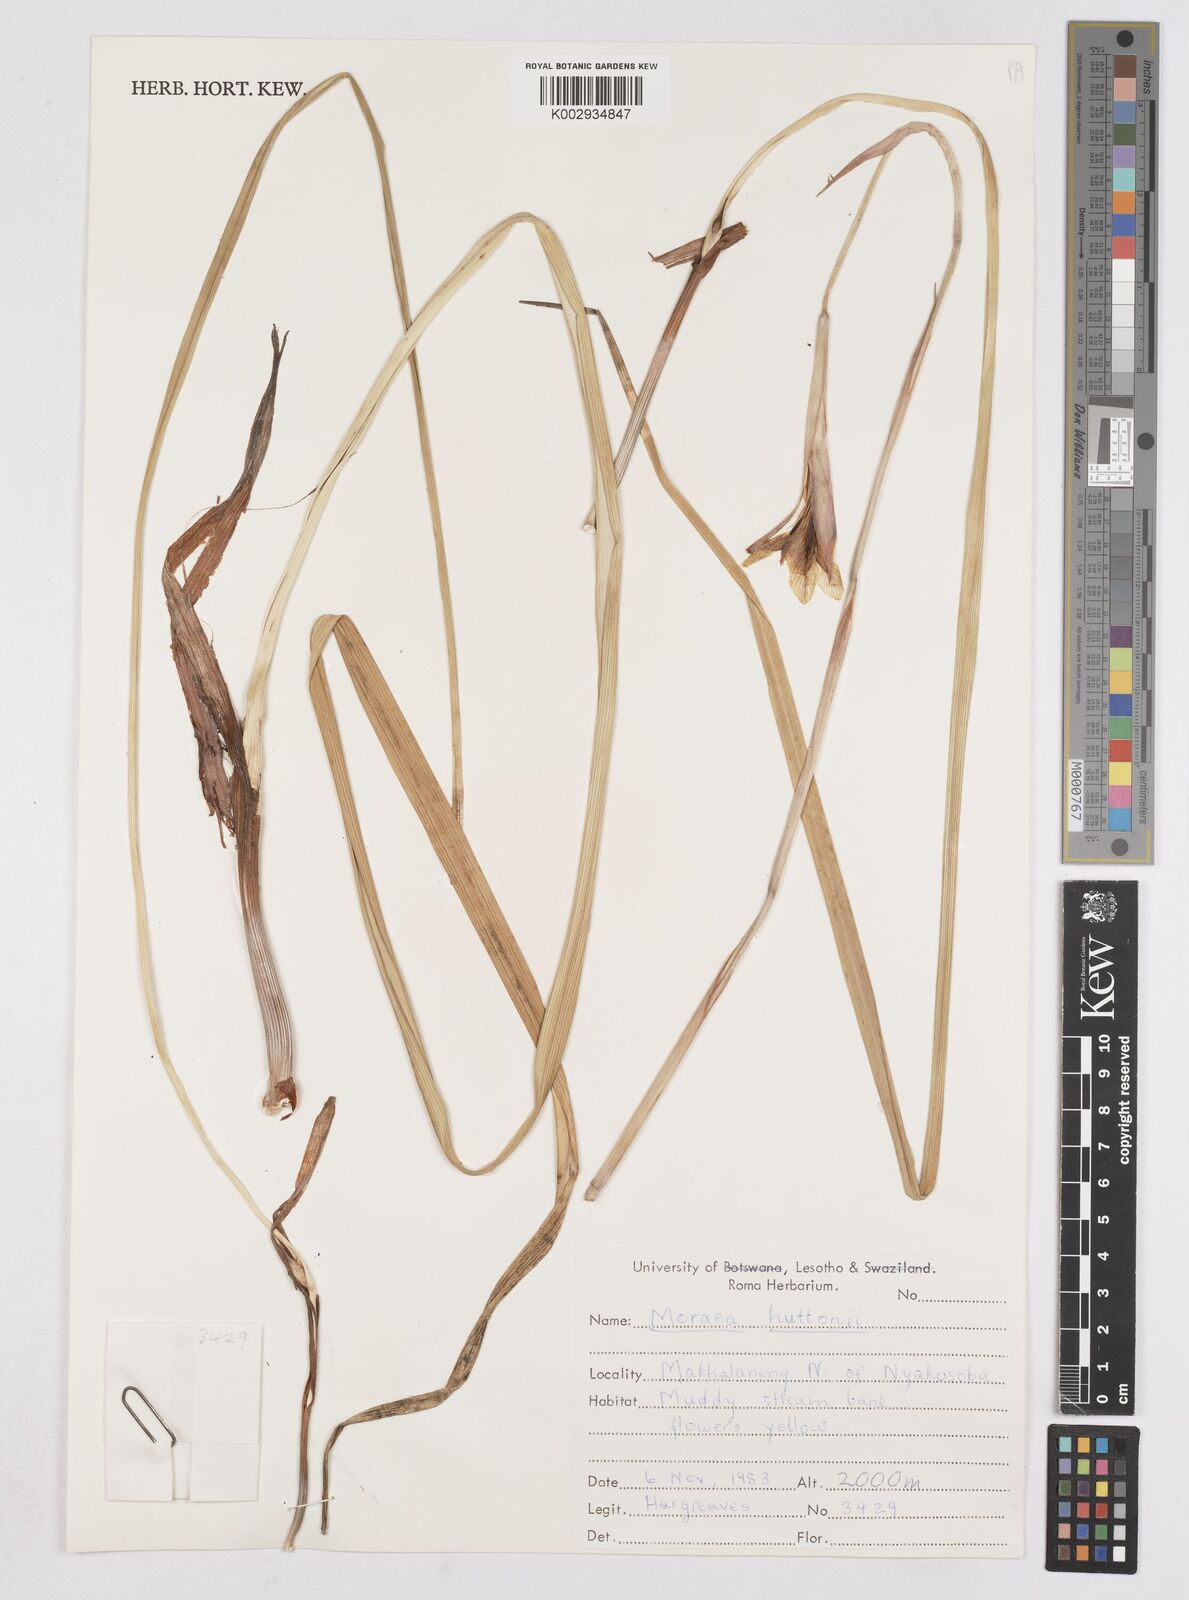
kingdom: Plantae
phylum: Tracheophyta
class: Liliopsida
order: Asparagales
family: Iridaceae
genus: Moraea
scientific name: Moraea huttonii
